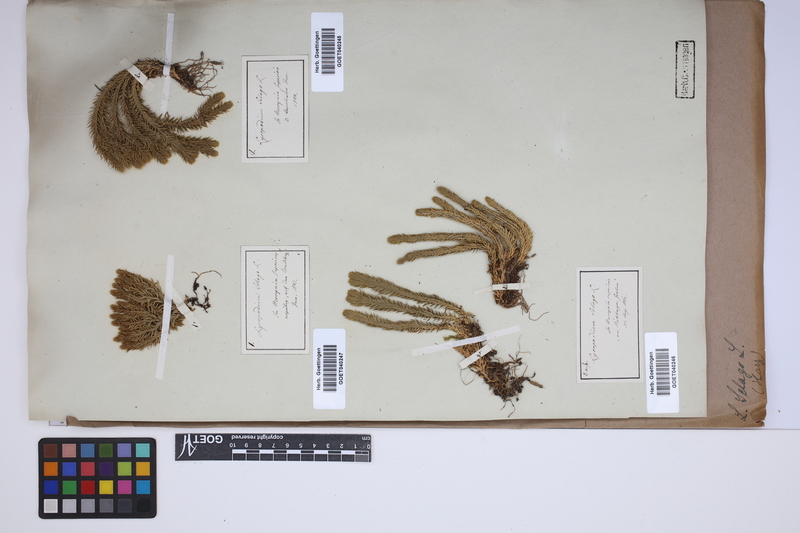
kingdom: Plantae
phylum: Tracheophyta
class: Lycopodiopsida
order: Lycopodiales
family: Lycopodiaceae
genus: Huperzia
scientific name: Huperzia selago
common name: Northern firmoss
